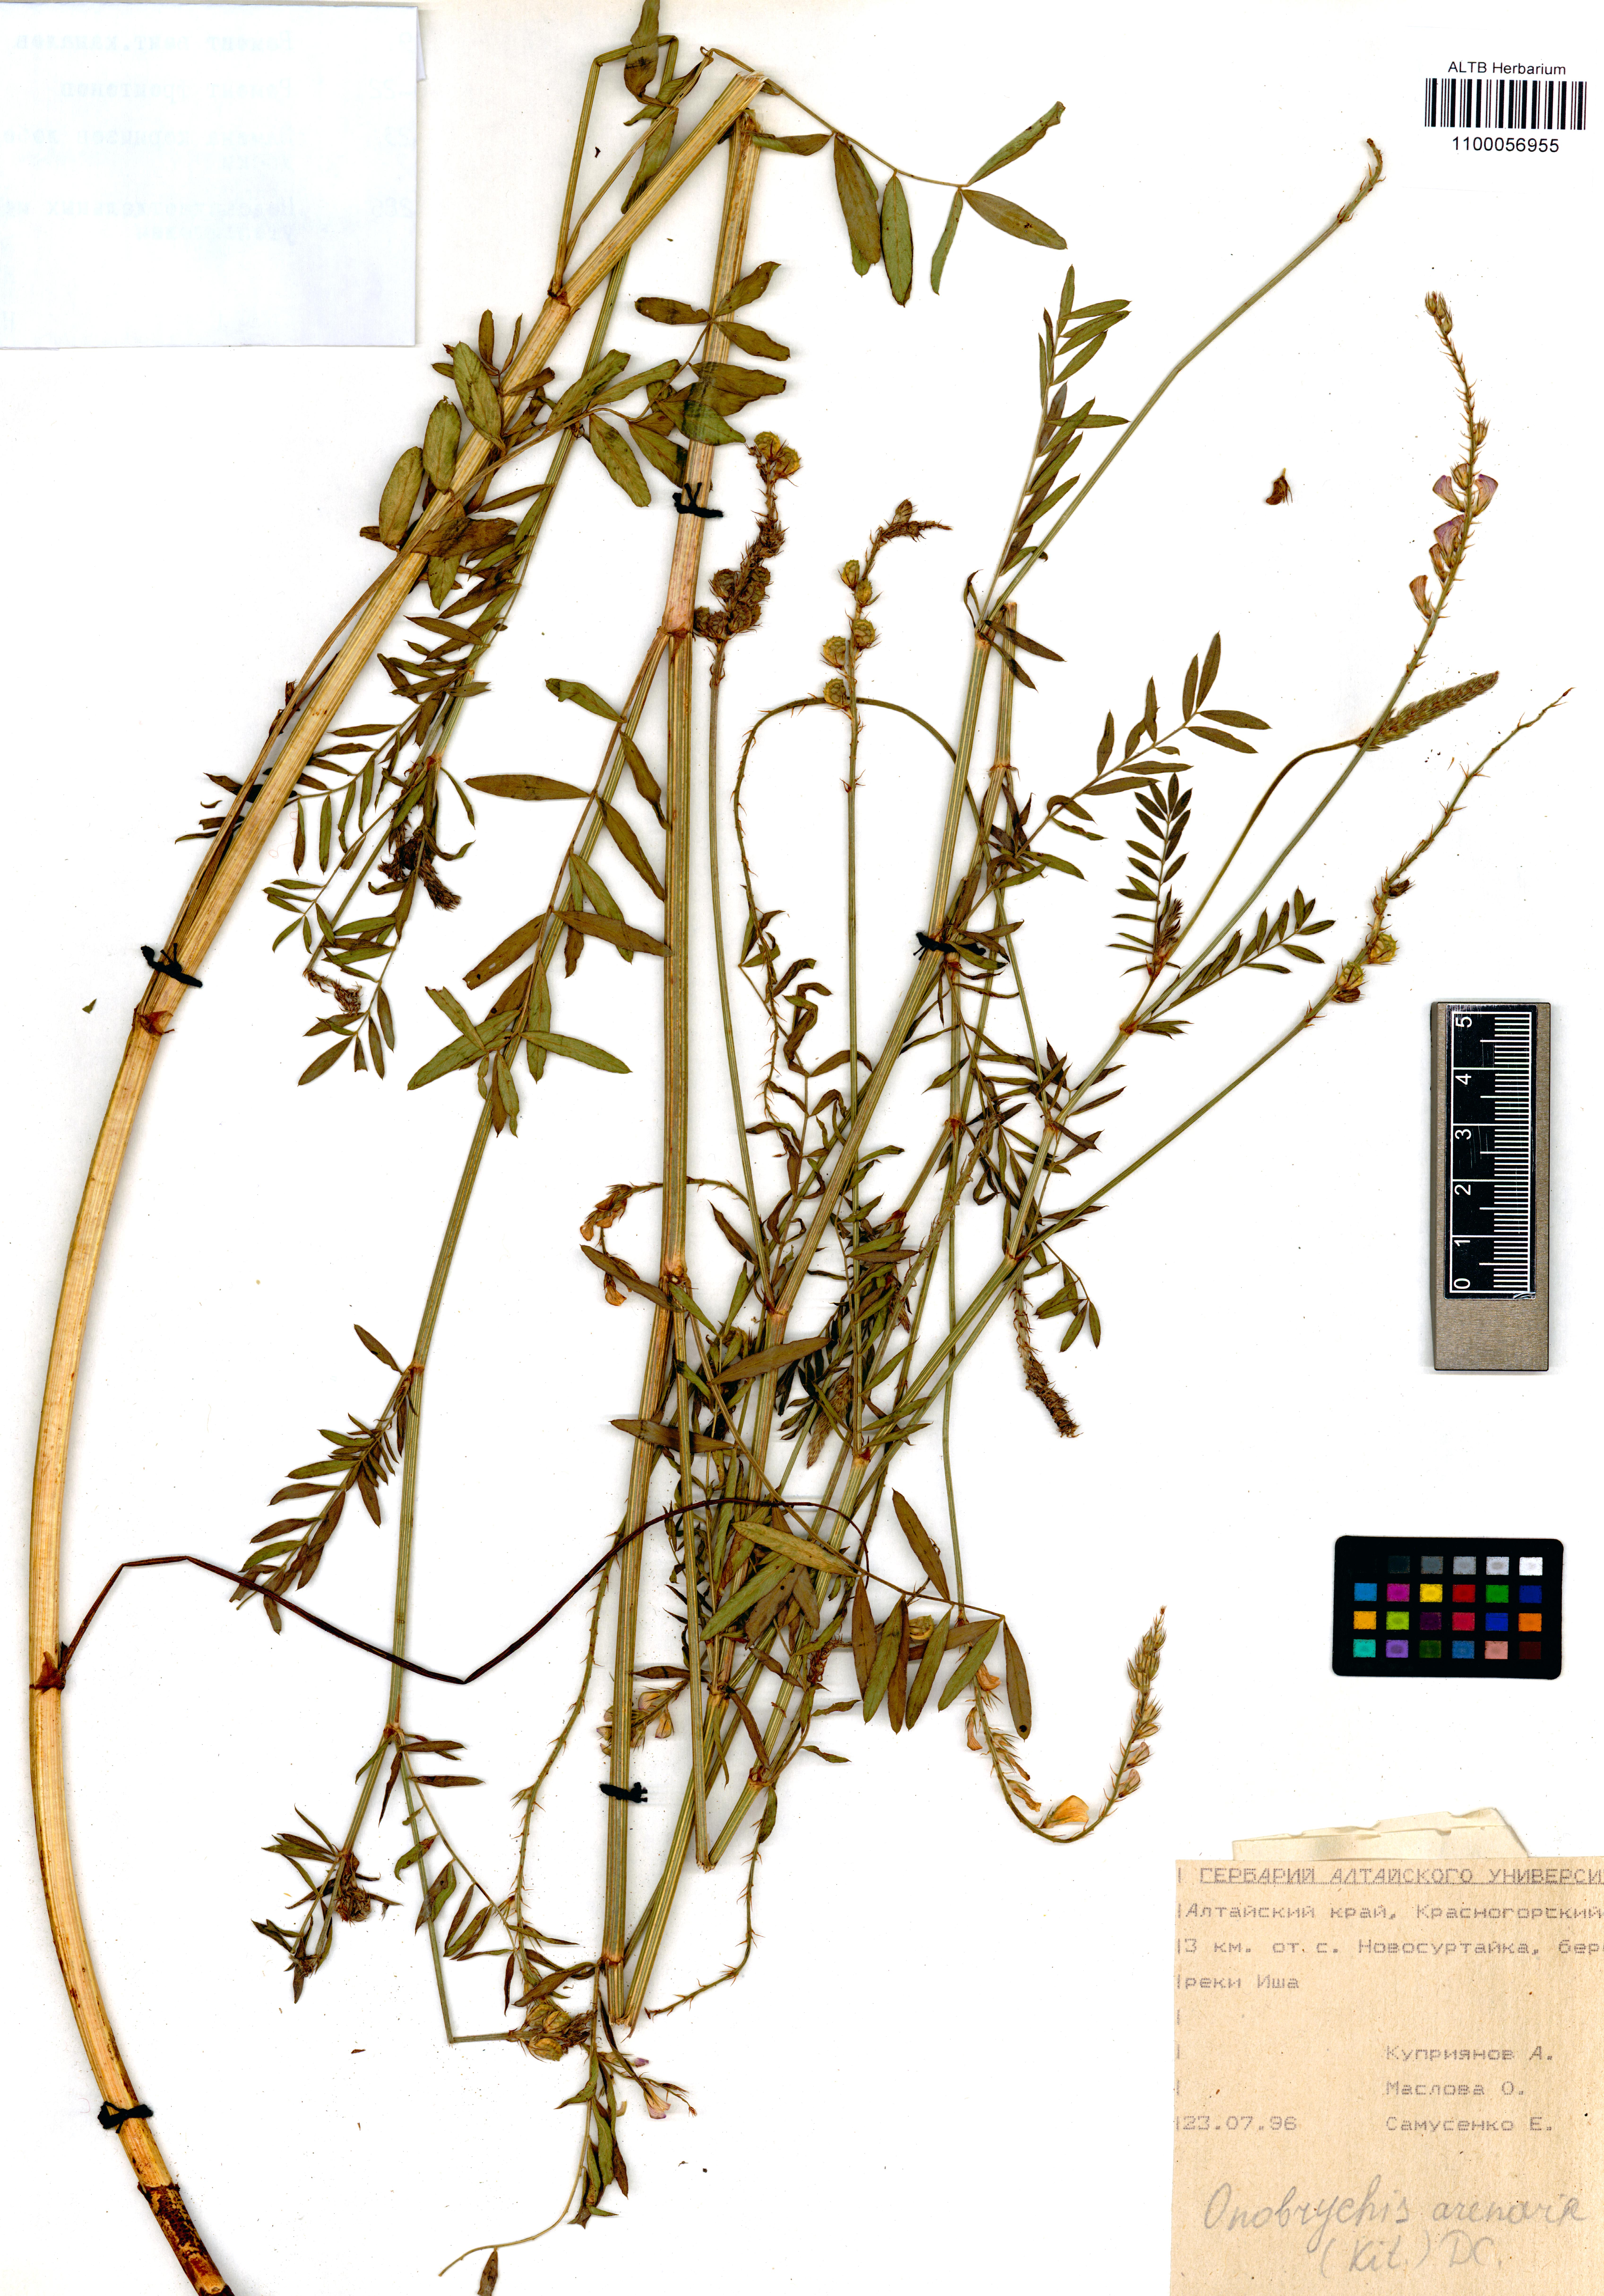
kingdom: Plantae
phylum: Tracheophyta
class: Magnoliopsida
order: Fabales
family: Fabaceae
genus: Onobrychis
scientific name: Onobrychis arenaria
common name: Sand esparcet
